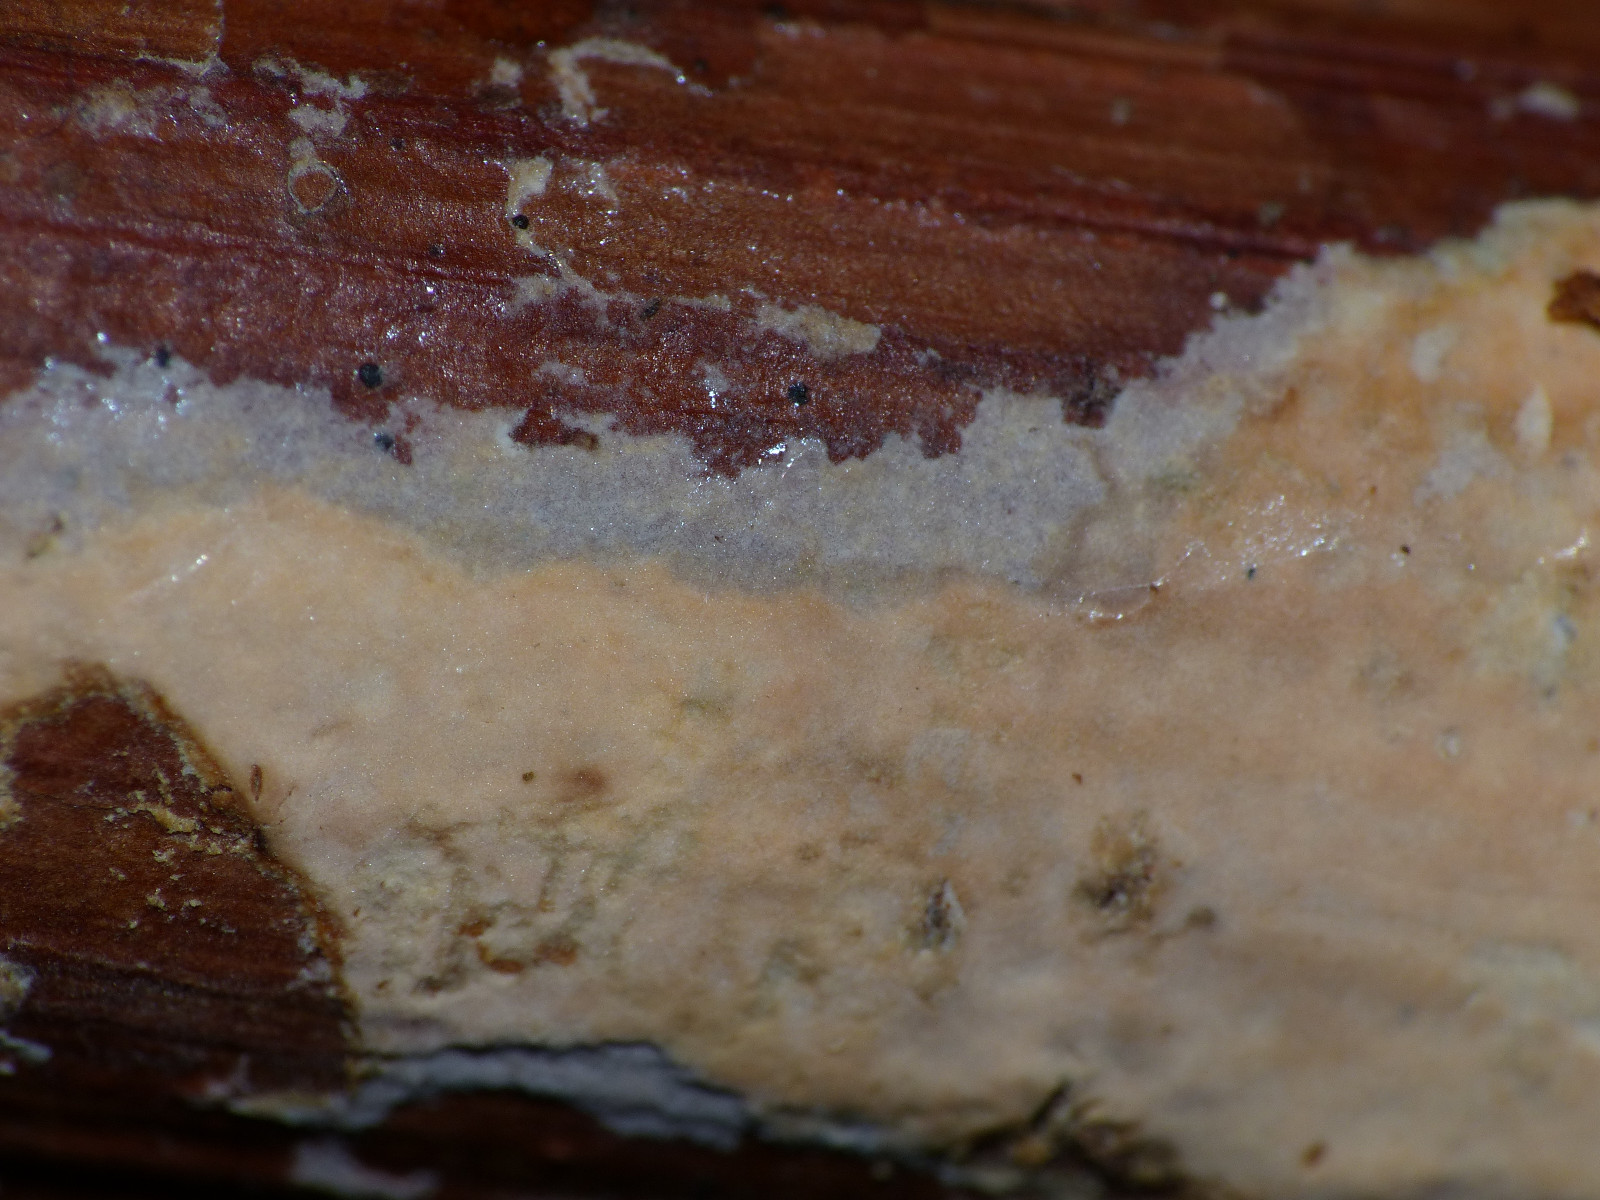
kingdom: Fungi
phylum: Basidiomycota
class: Agaricomycetes
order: Russulales
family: Peniophoraceae
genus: Peniophora
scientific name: Peniophora incarnata
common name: laksefarvet voksskind
